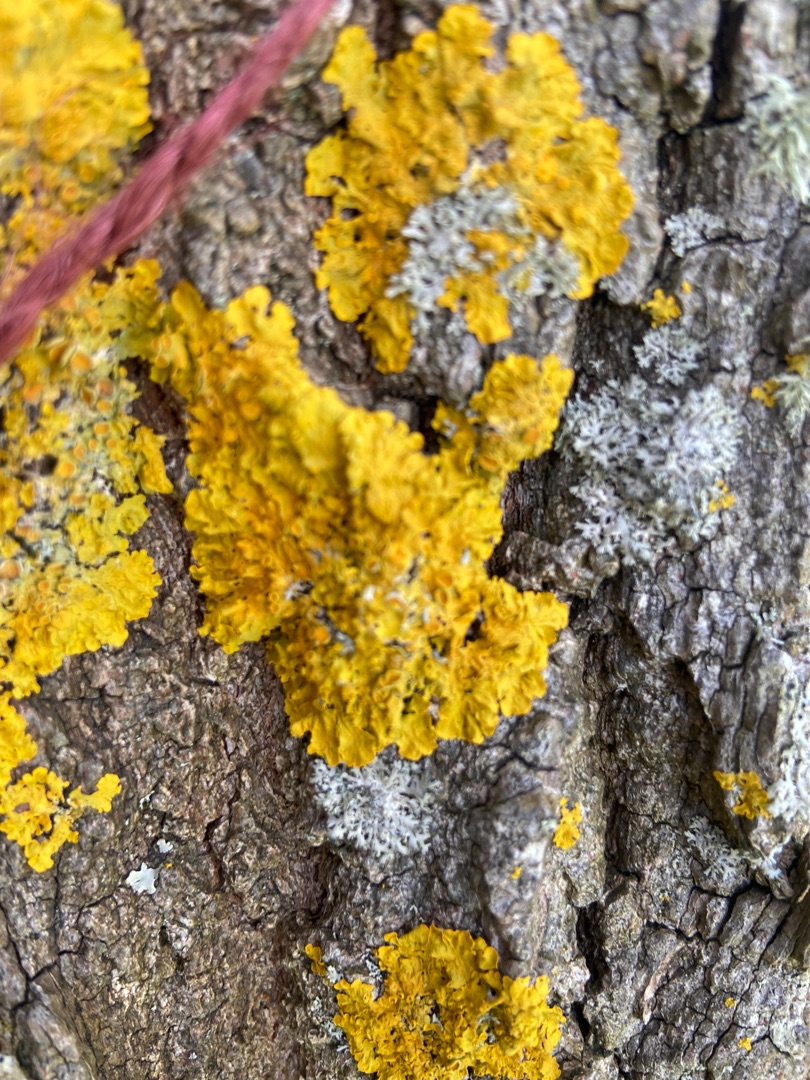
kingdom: Fungi
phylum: Ascomycota
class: Lecanoromycetes
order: Teloschistales
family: Teloschistaceae
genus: Xanthoria
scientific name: Xanthoria parietina
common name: Almindelig væggelav
